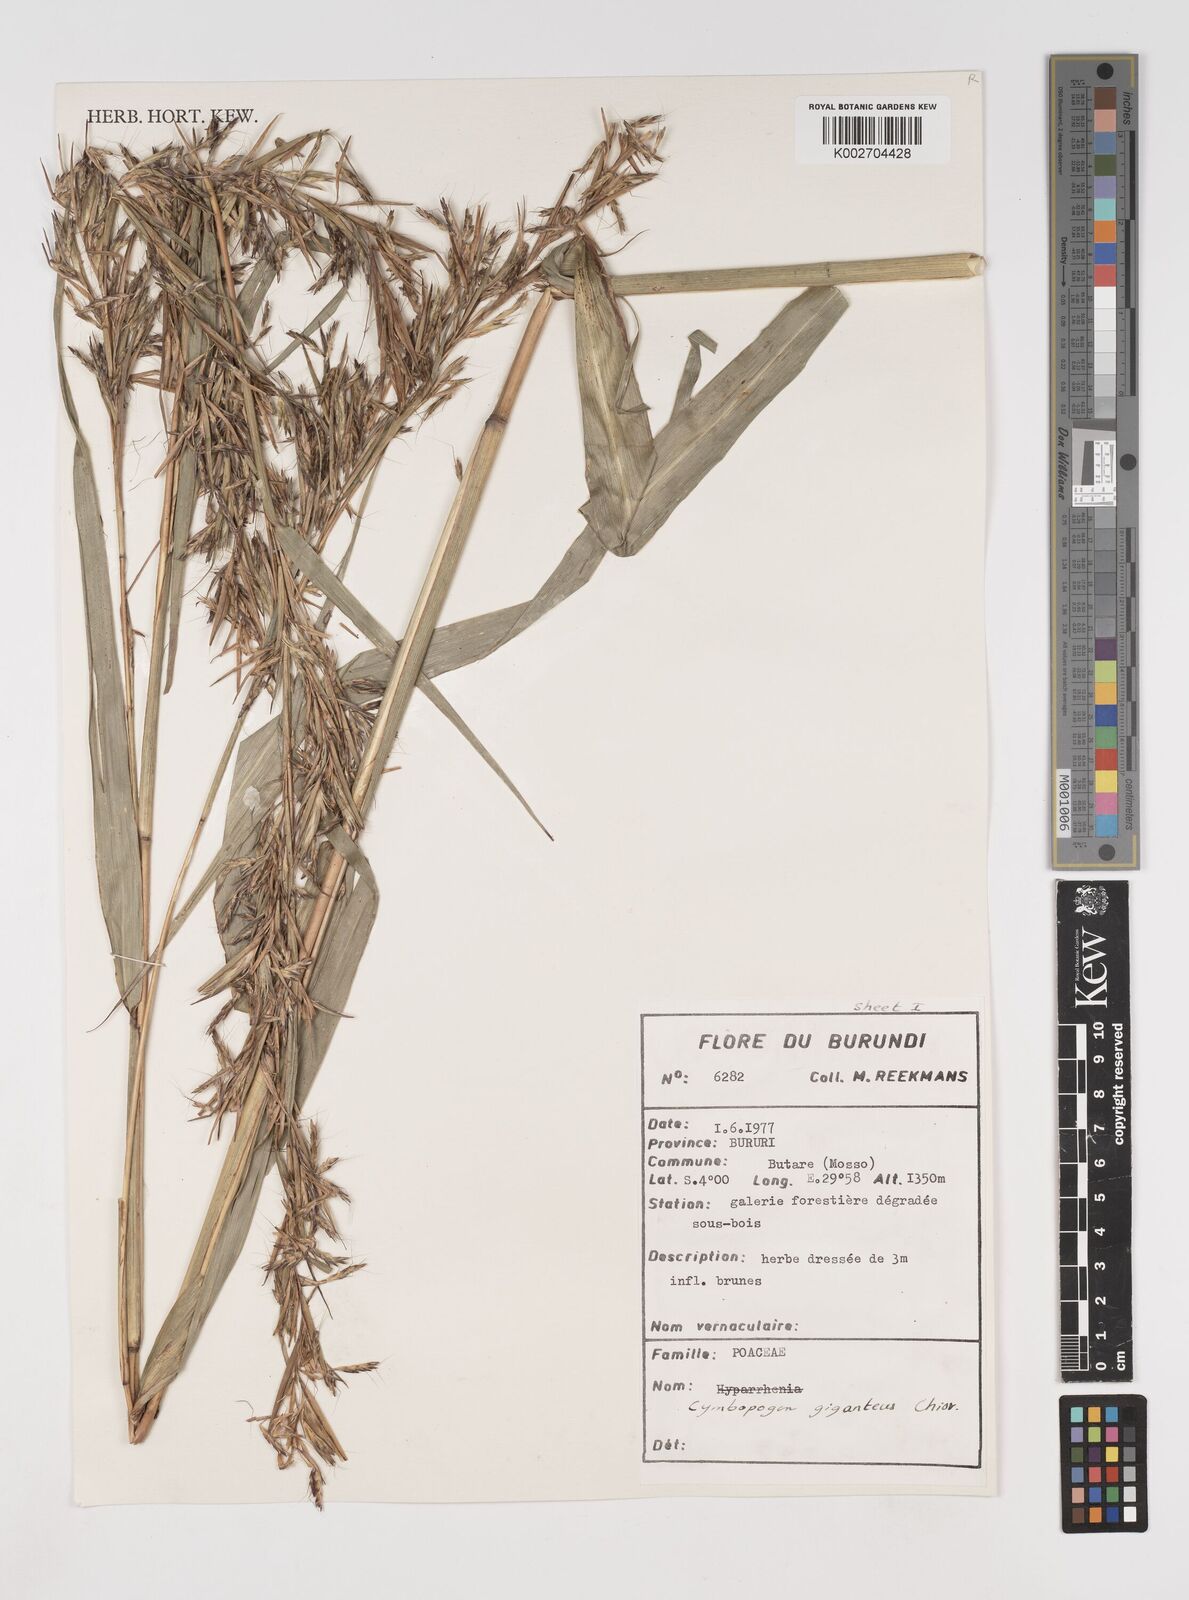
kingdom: Plantae
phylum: Tracheophyta
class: Liliopsida
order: Poales
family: Poaceae
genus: Cymbopogon
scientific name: Cymbopogon giganteus
